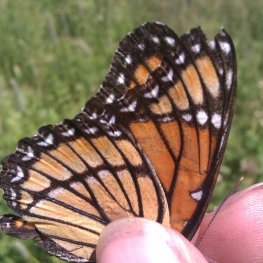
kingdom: Animalia
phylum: Arthropoda
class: Insecta
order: Lepidoptera
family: Nymphalidae
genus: Limenitis
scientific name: Limenitis archippus
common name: Viceroy
